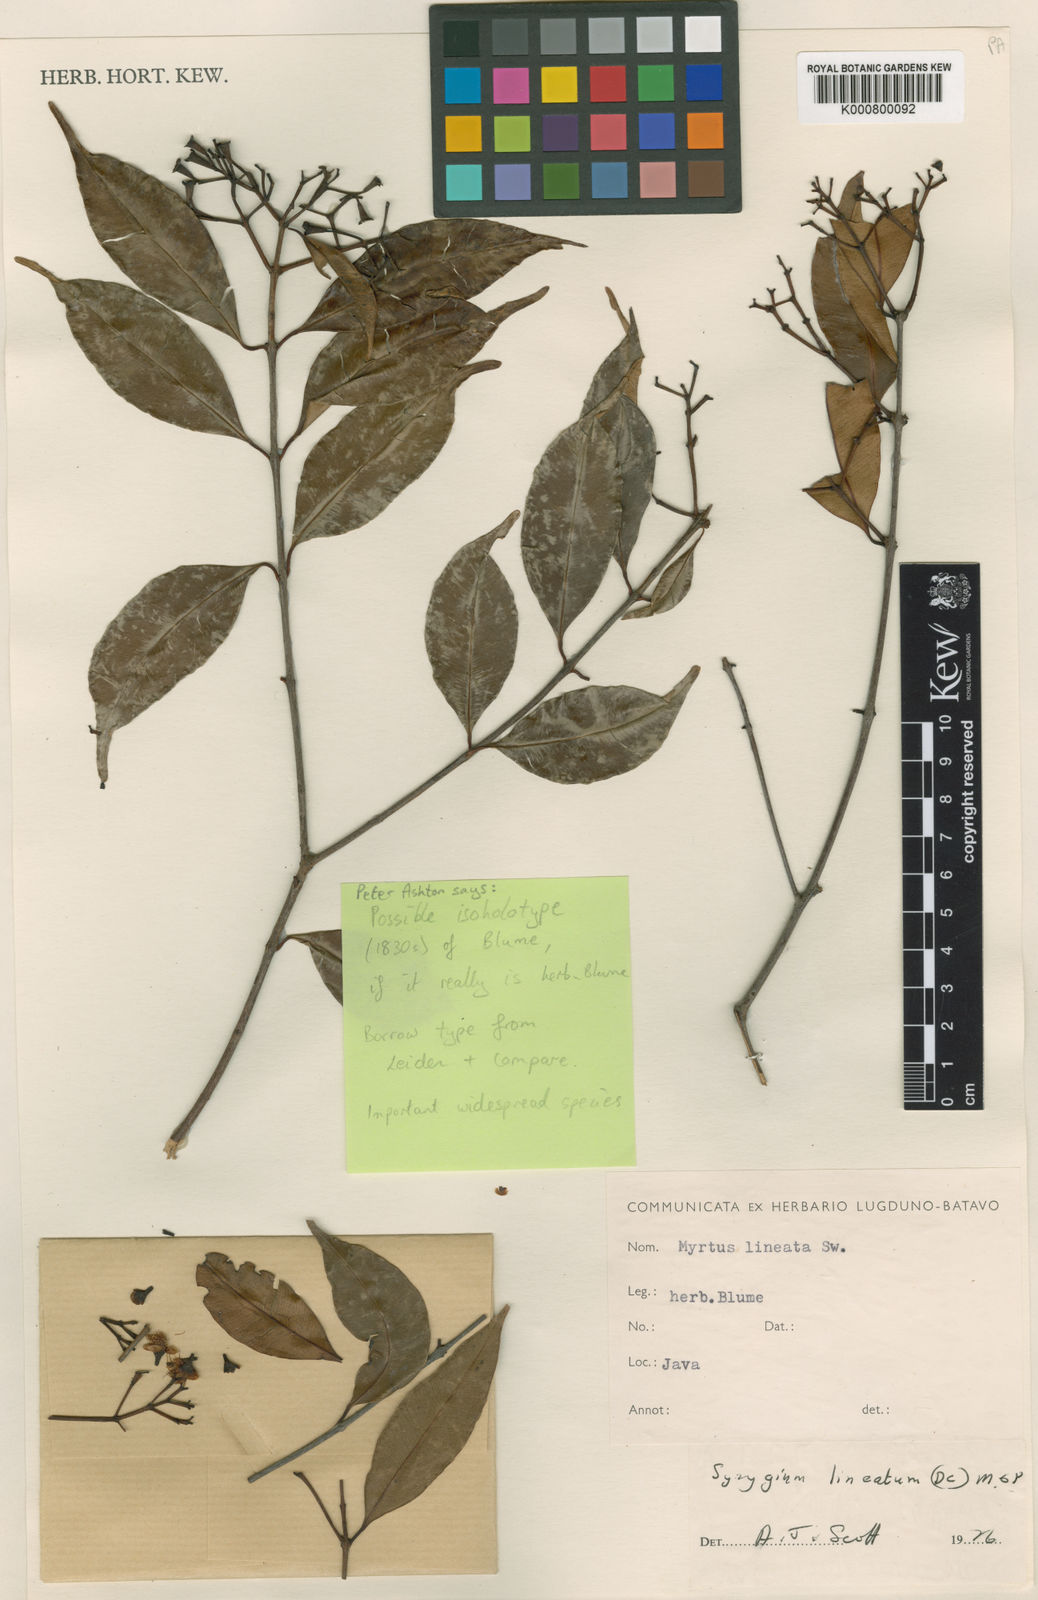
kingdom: Plantae
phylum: Tracheophyta
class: Magnoliopsida
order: Myrtales
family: Myrtaceae
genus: Syzygium
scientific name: Syzygium lineatum
